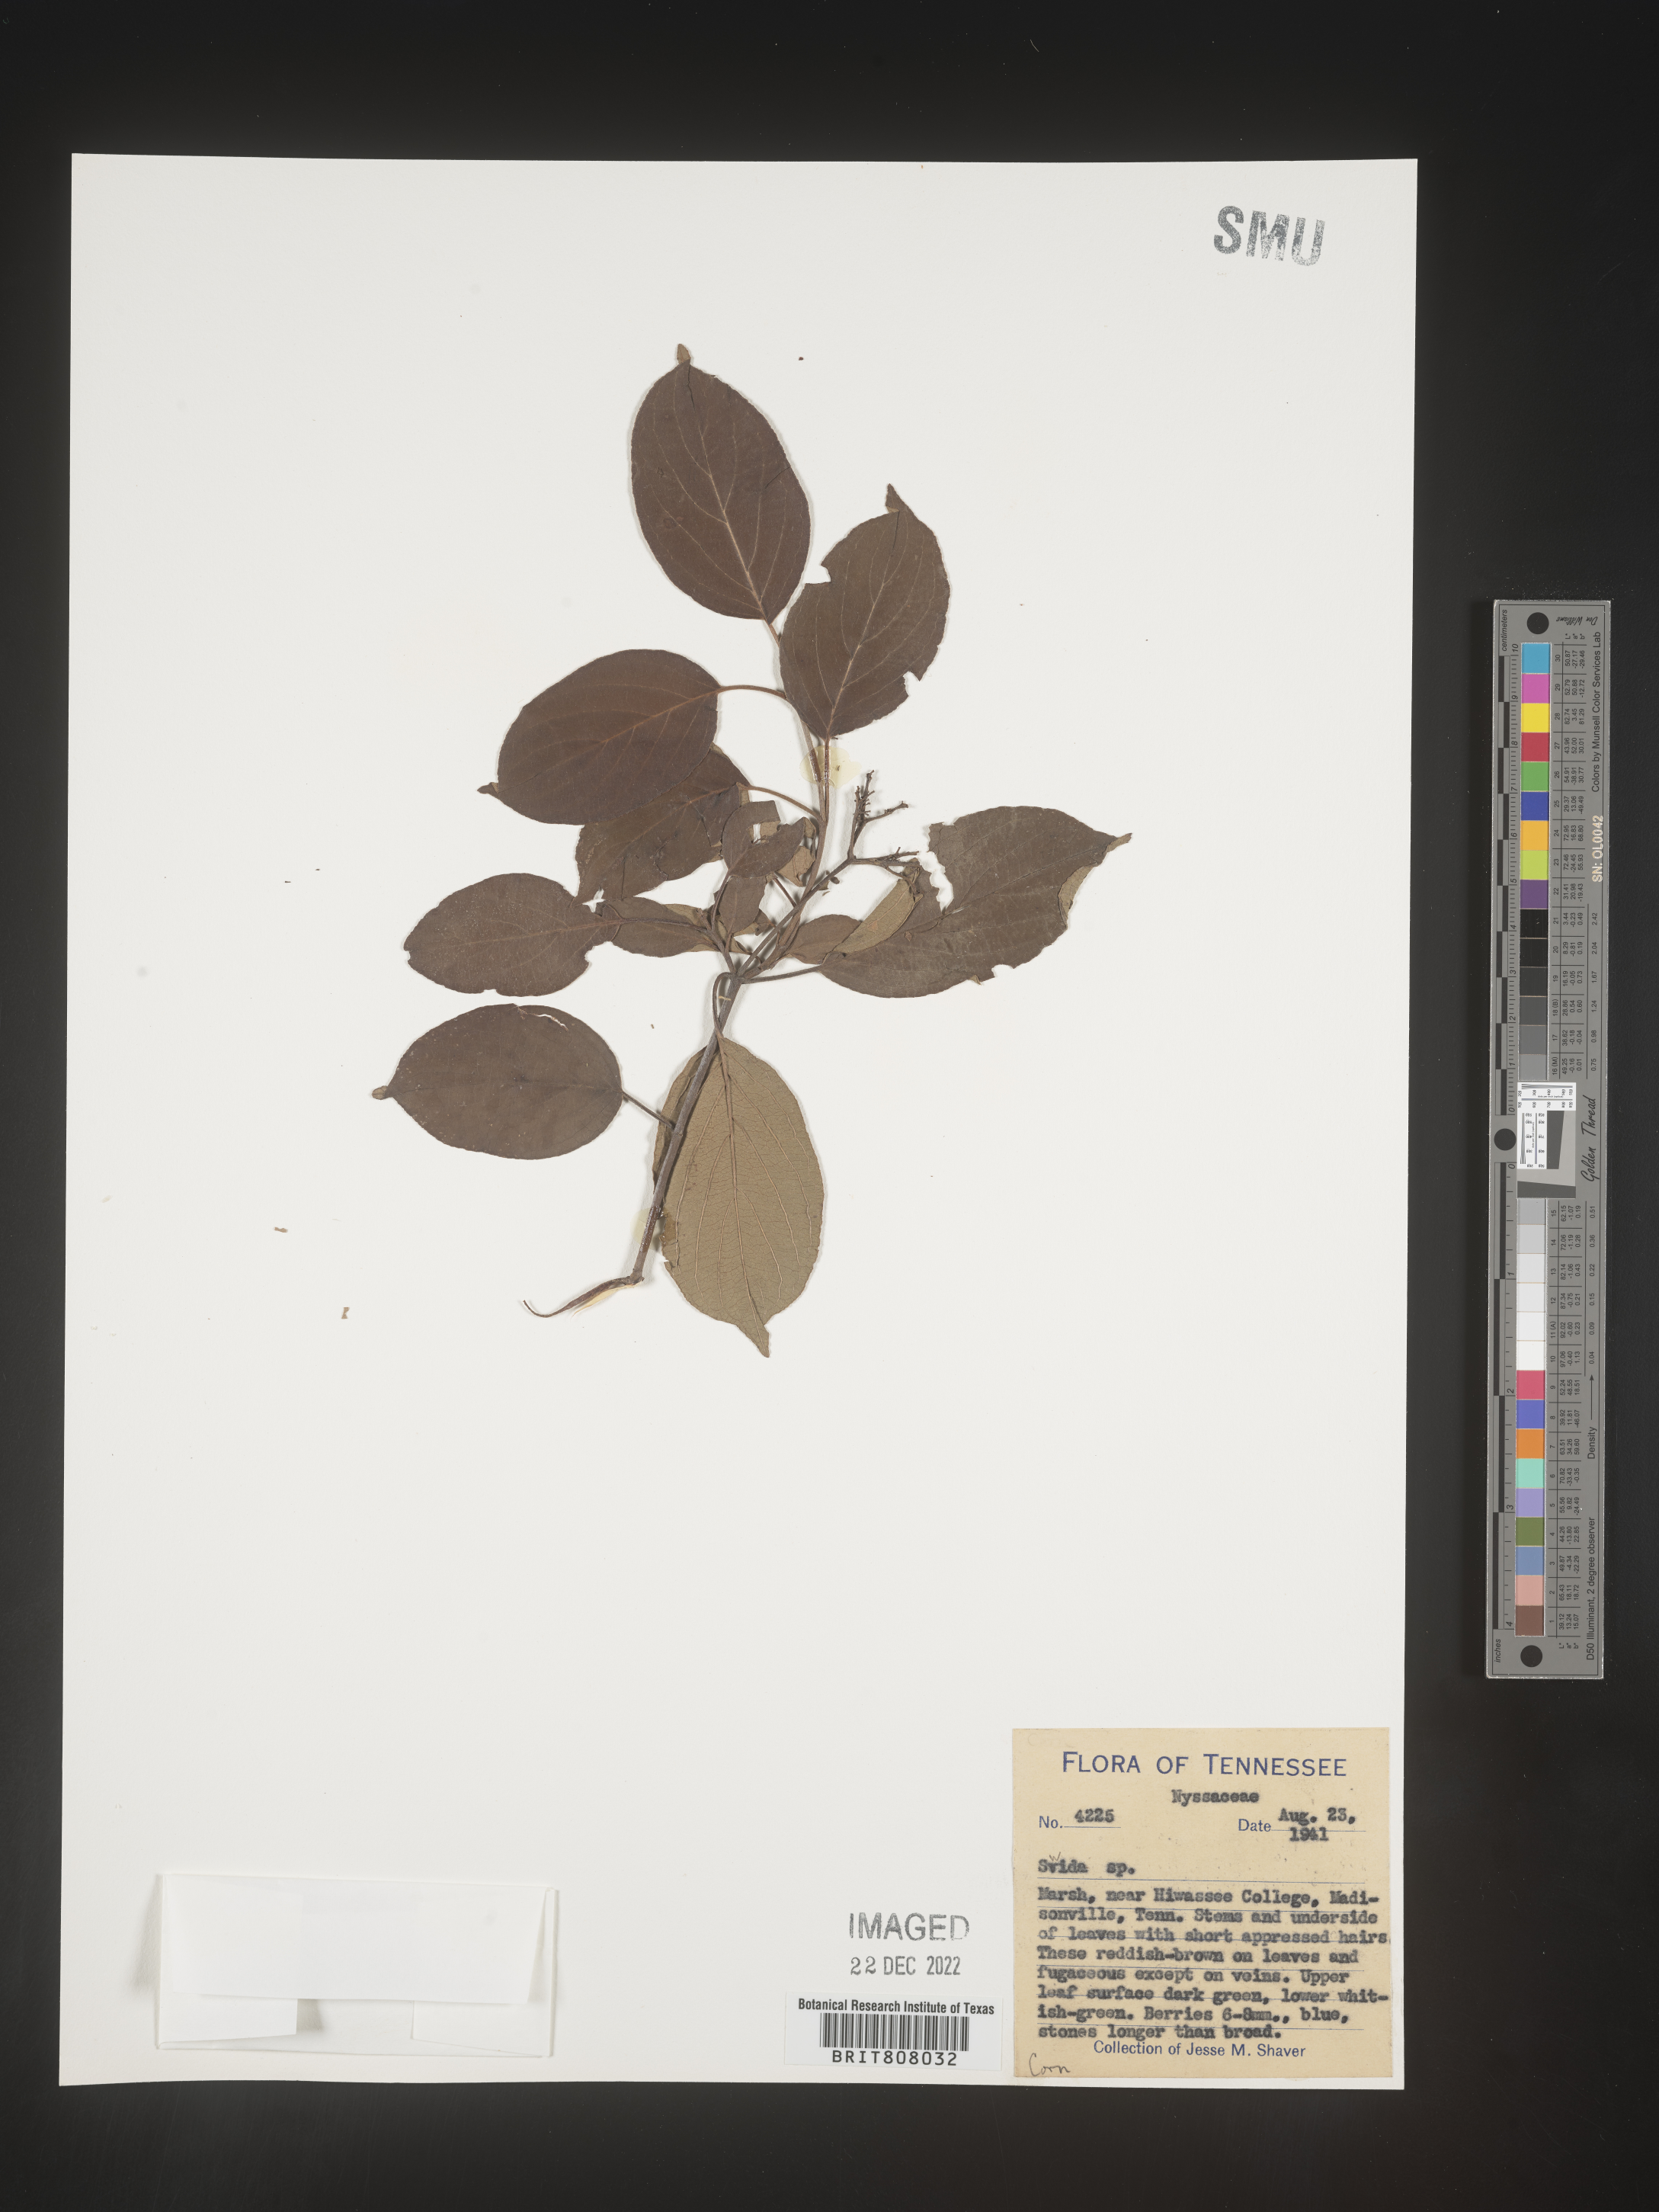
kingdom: Plantae
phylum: Tracheophyta
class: Magnoliopsida
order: Cornales
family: Cornaceae
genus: Cornus
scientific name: Cornus
